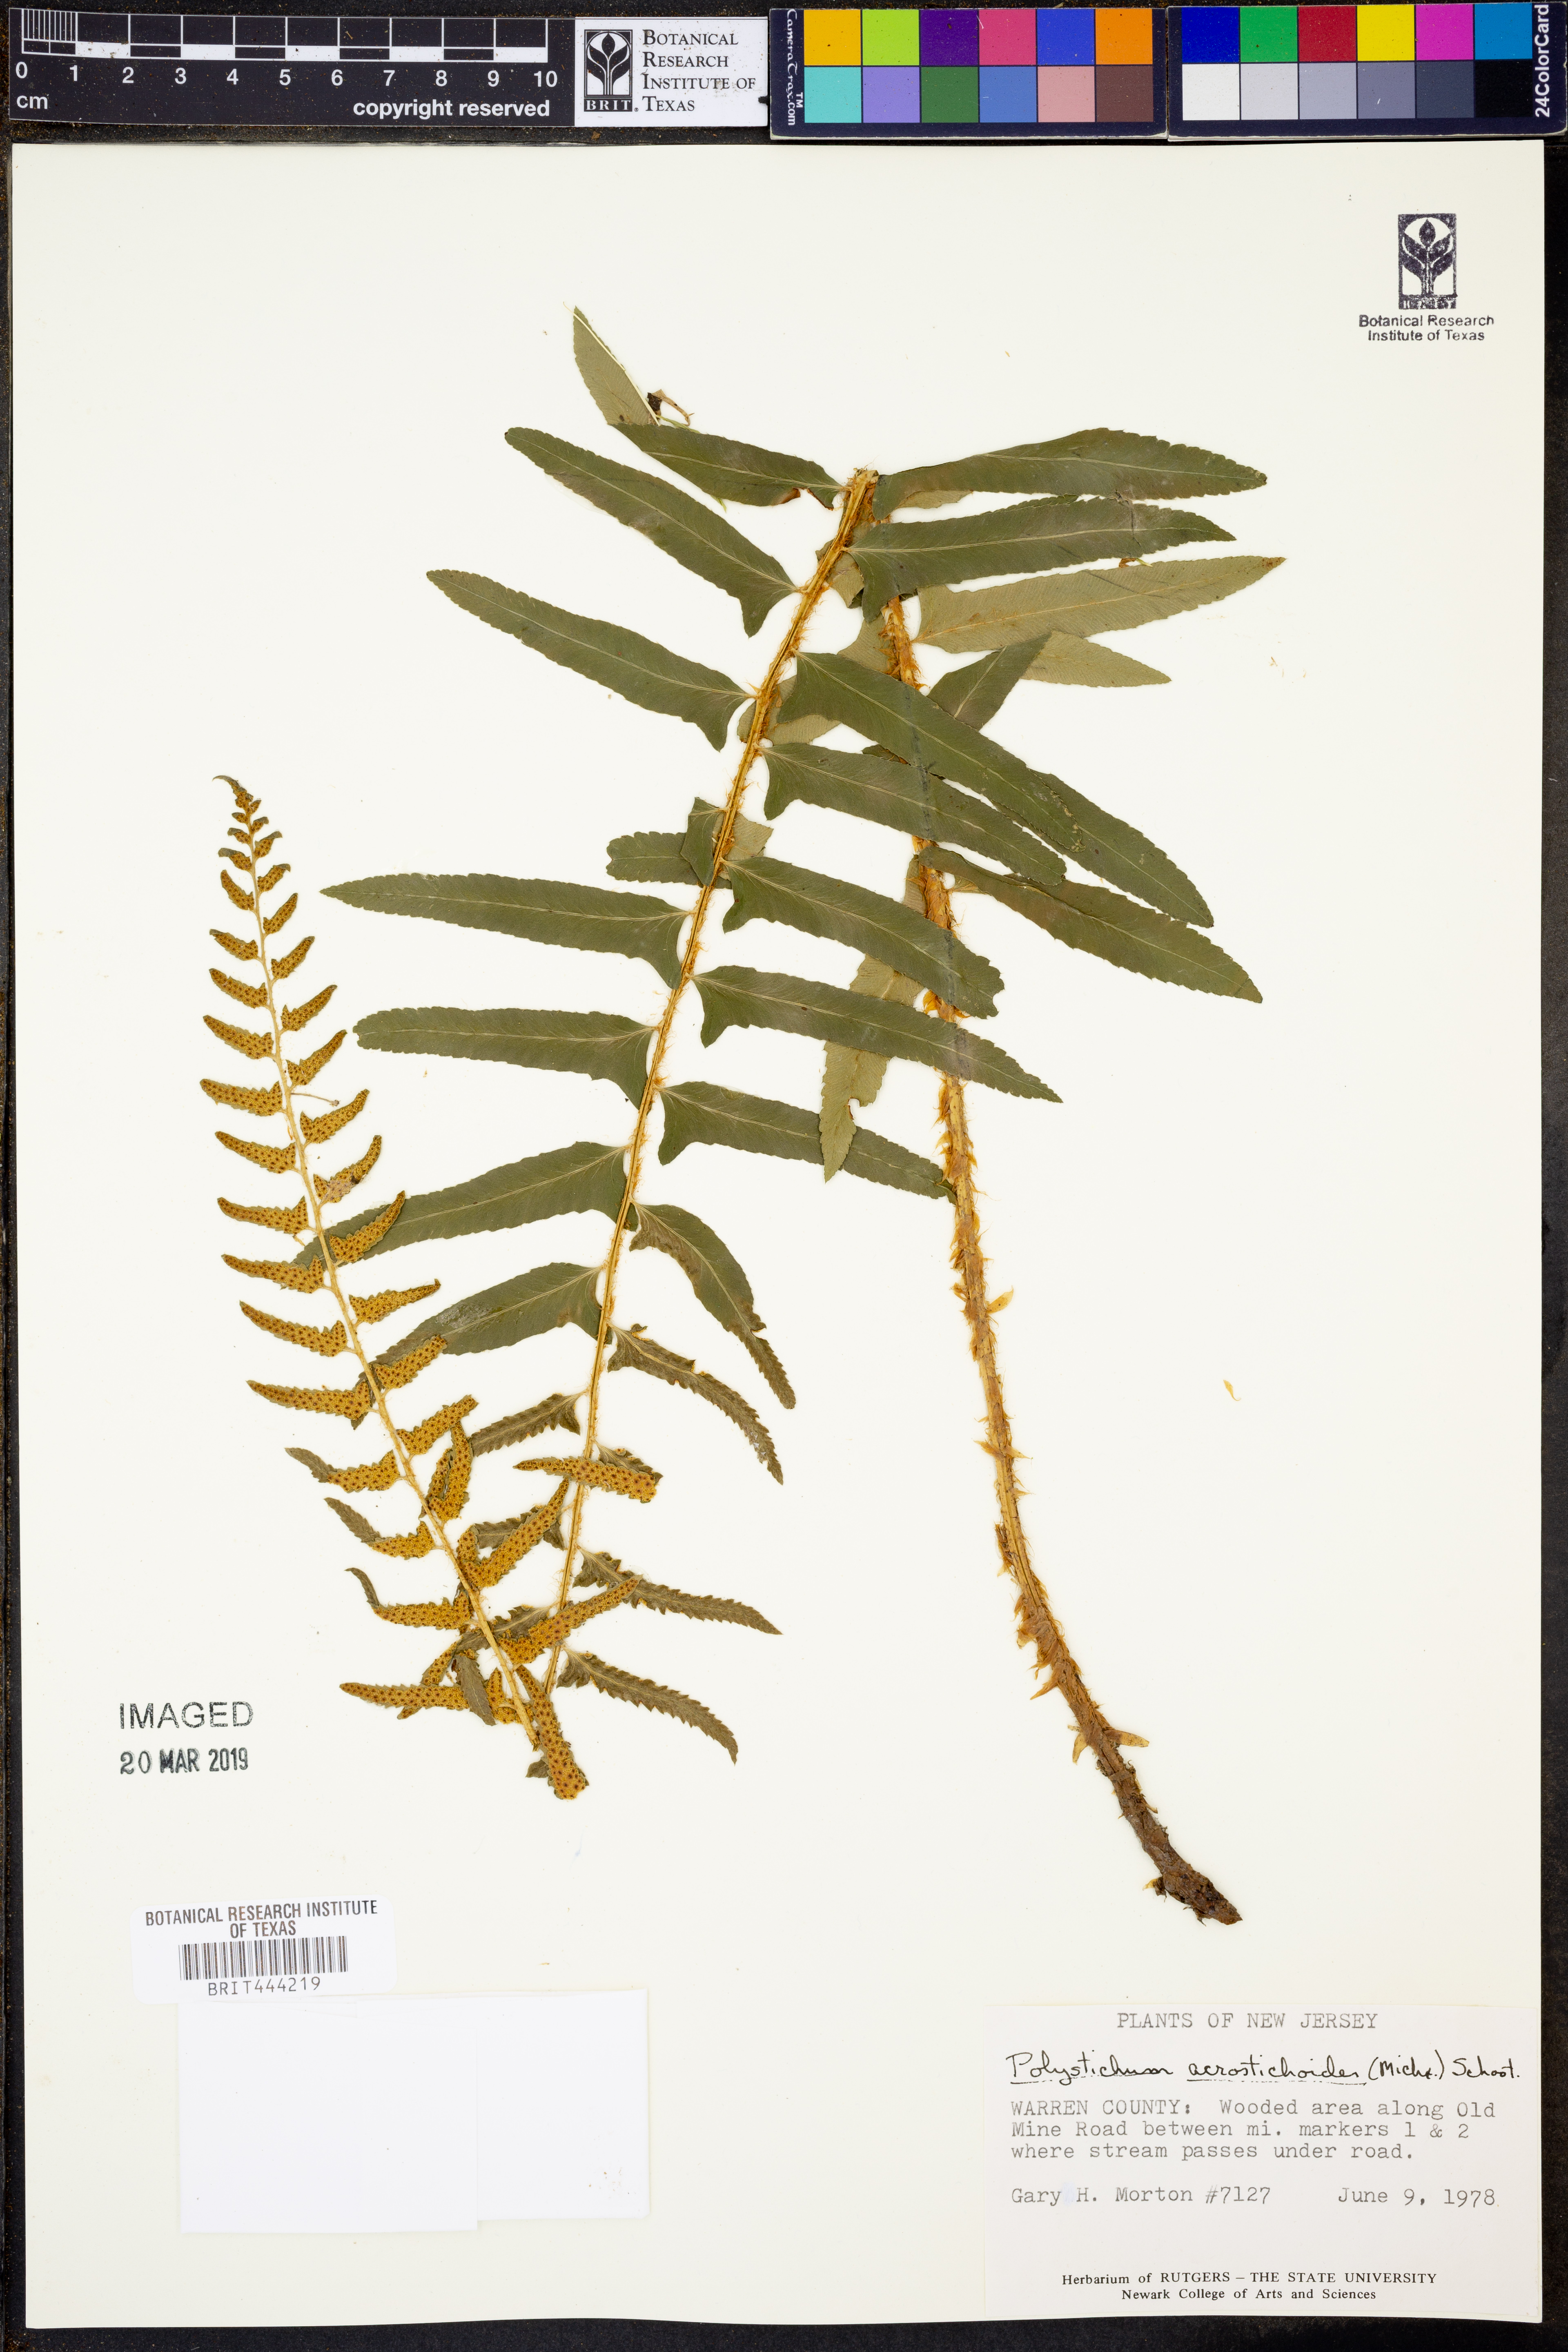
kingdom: Plantae
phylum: Tracheophyta
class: Polypodiopsida
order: Polypodiales
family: Dryopteridaceae
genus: Polystichum
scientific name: Polystichum acrostichoides
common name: Christmas fern
